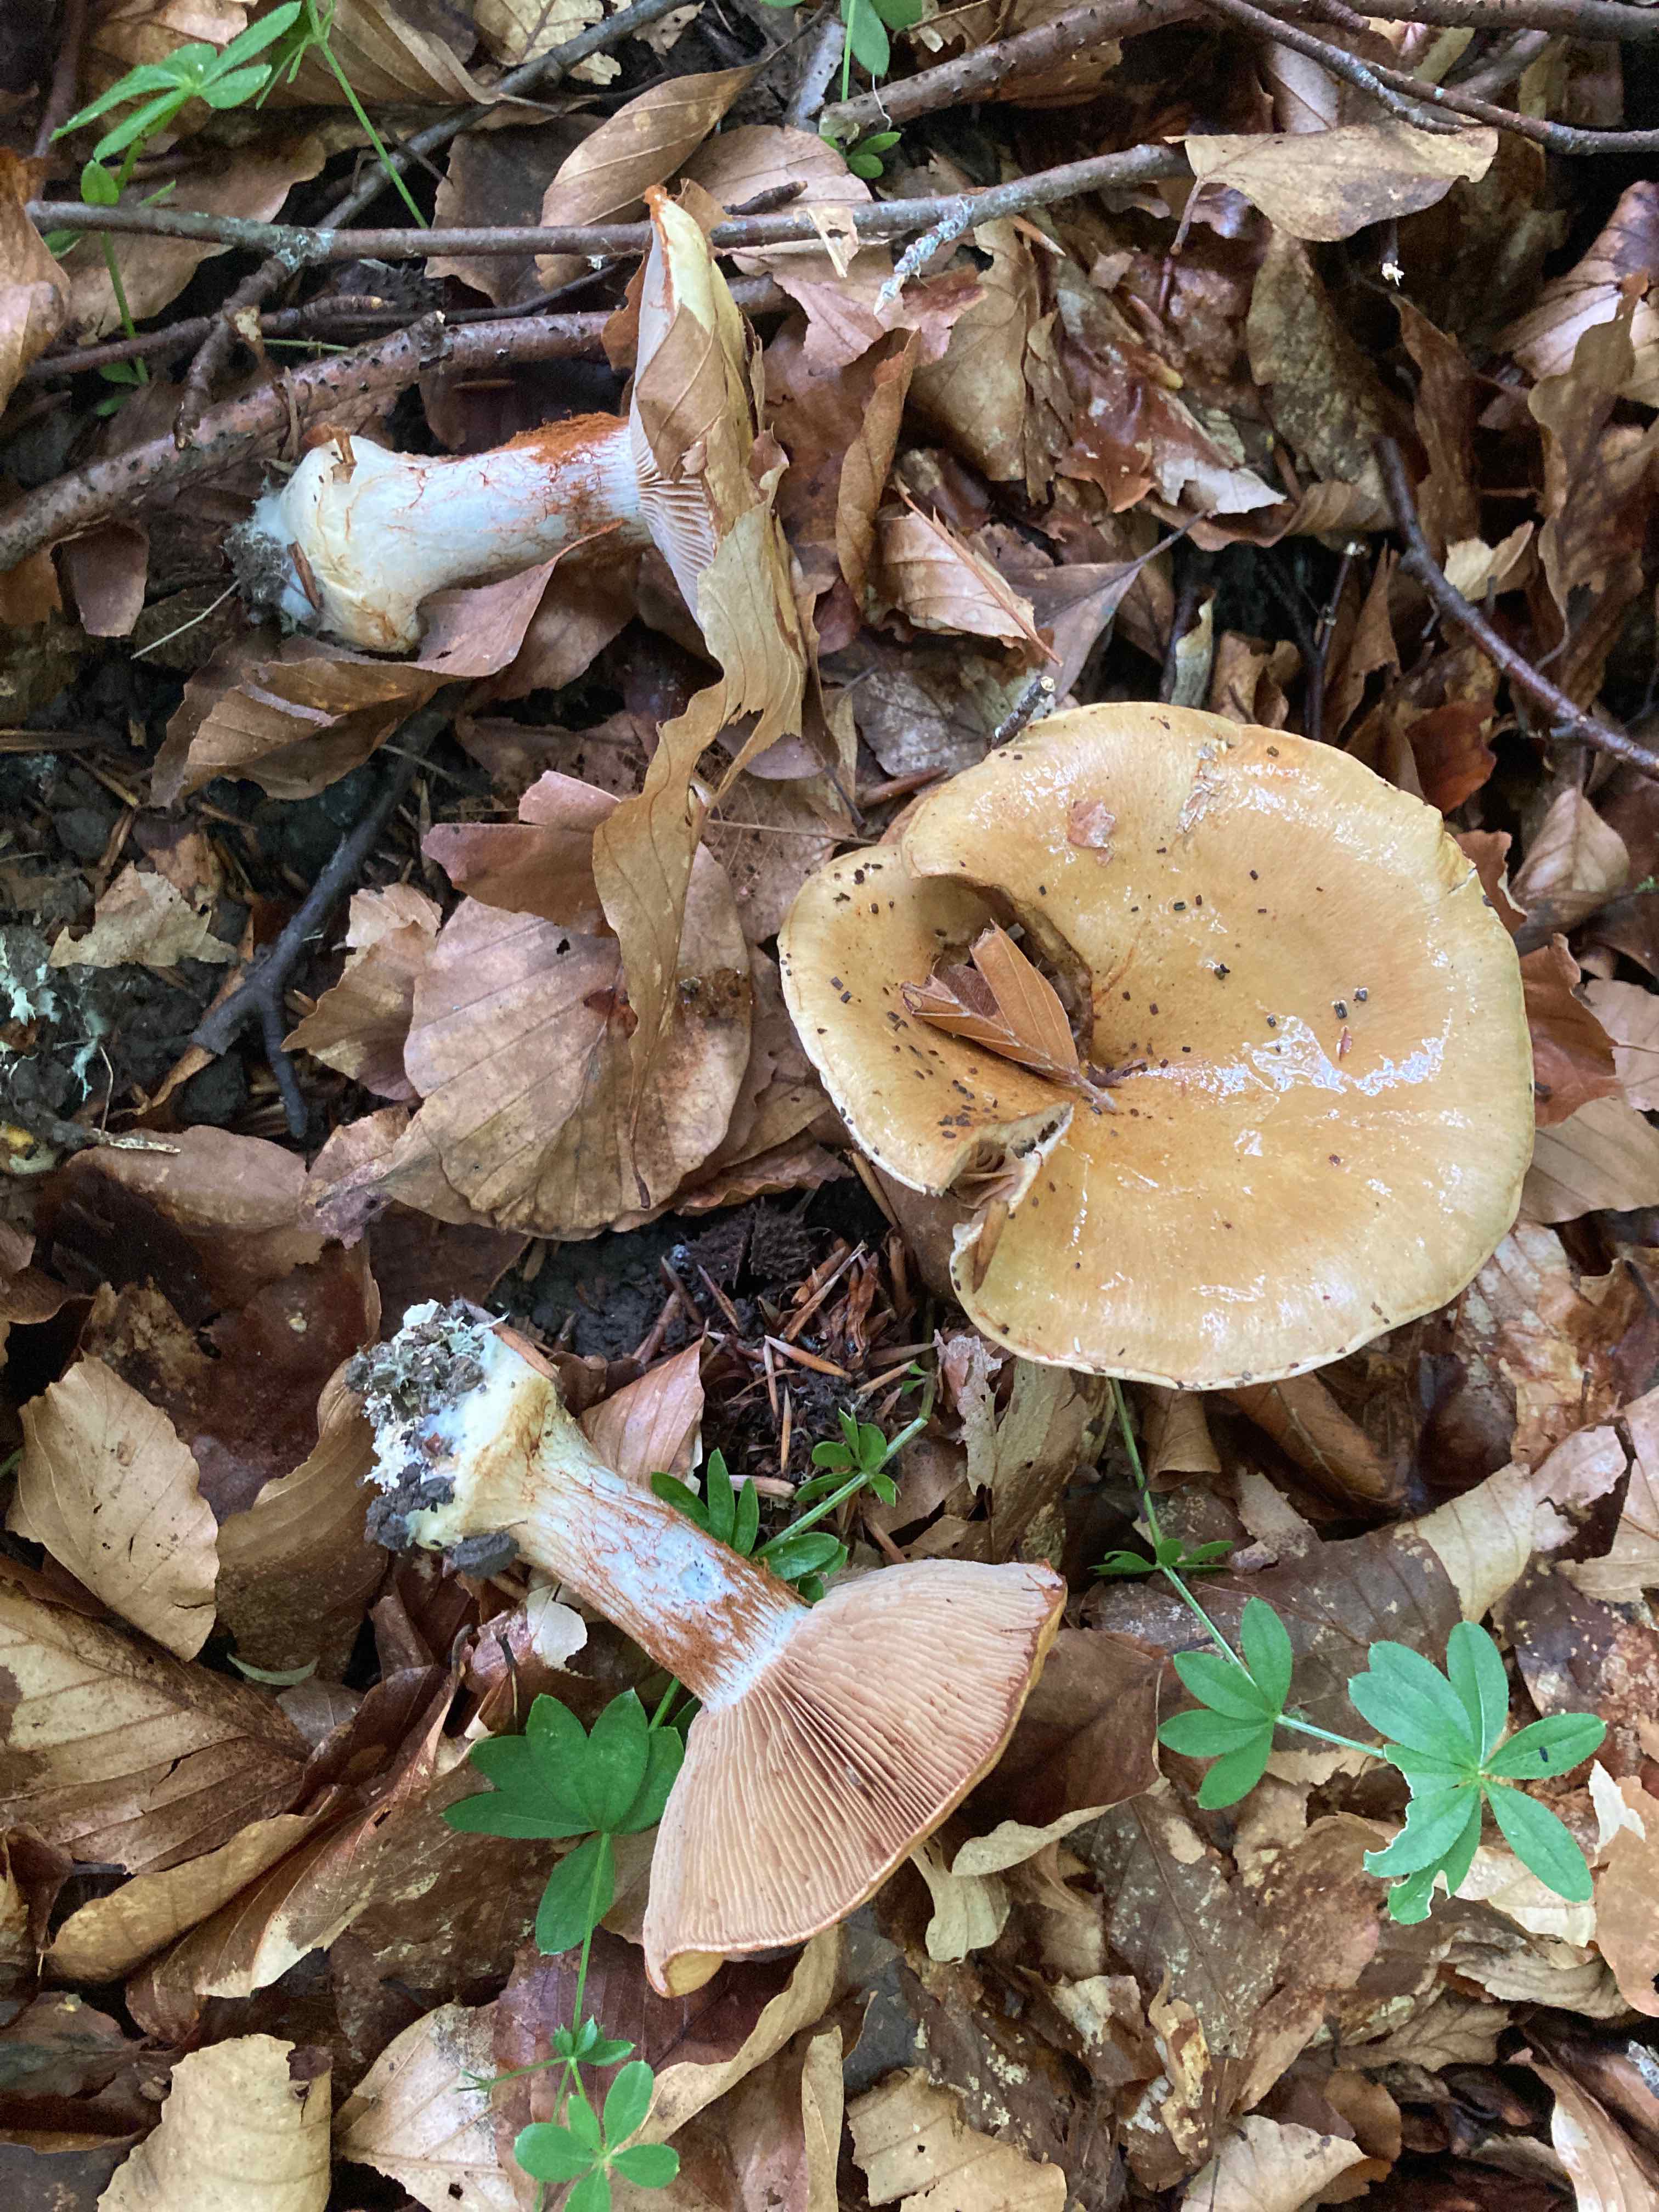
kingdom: Fungi
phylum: Basidiomycota
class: Agaricomycetes
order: Agaricales
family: Cortinariaceae
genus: Cortinarius
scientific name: Cortinarius anserinus
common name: bøge-slørhat
